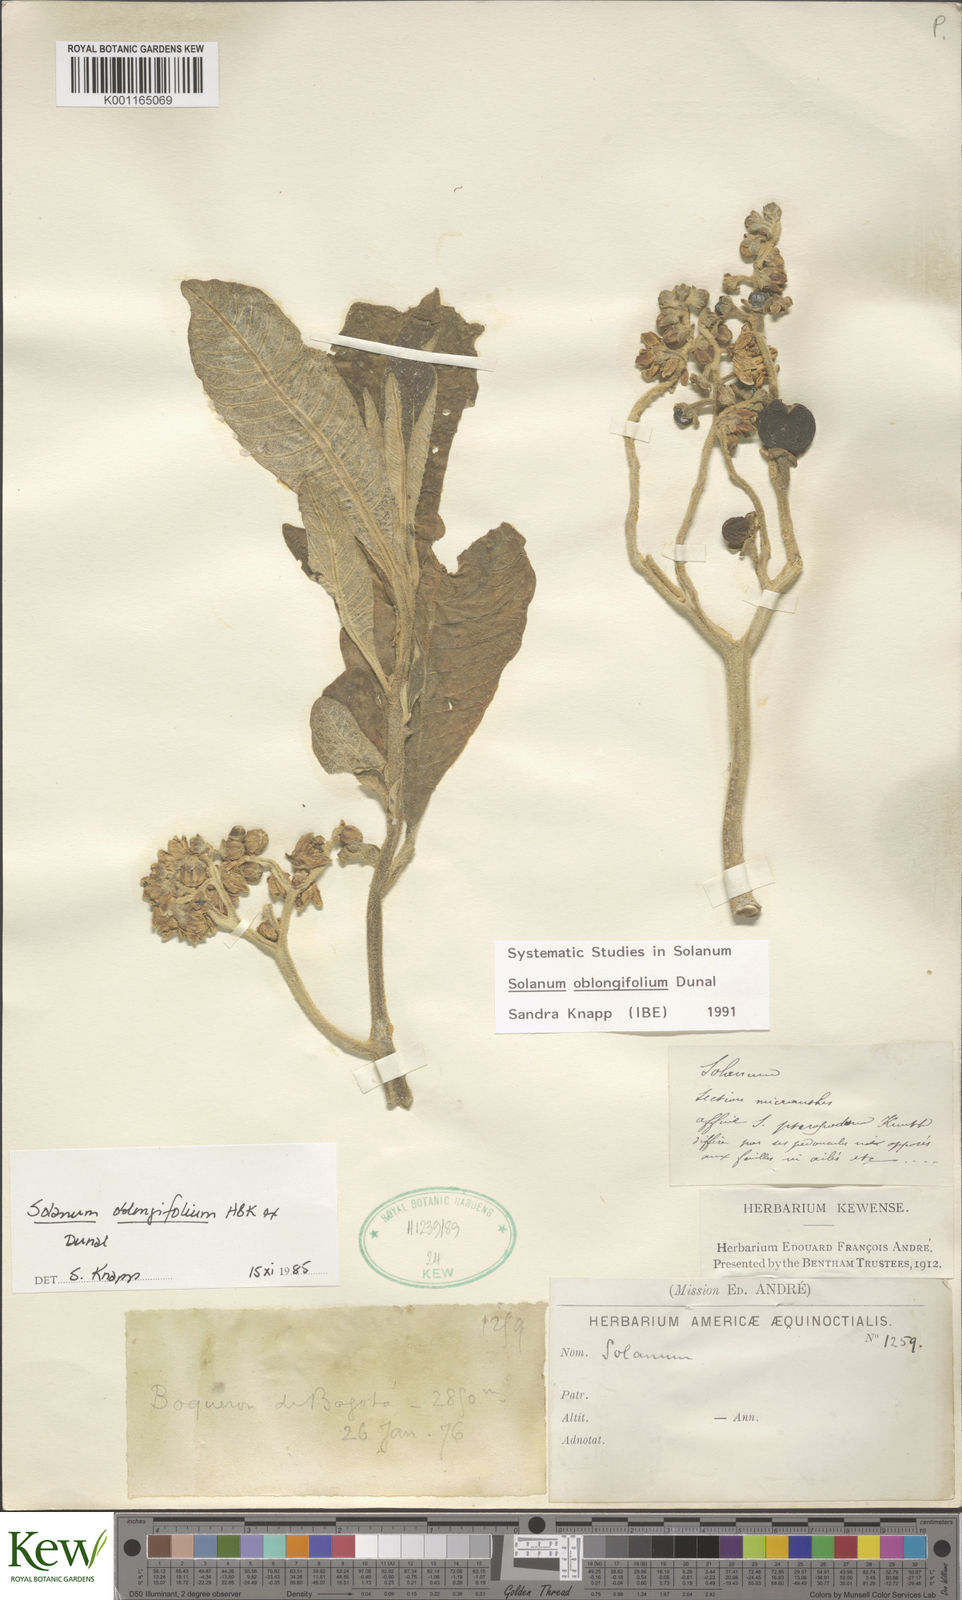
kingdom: Plantae
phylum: Tracheophyta
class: Magnoliopsida
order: Solanales
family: Solanaceae
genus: Solanum
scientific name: Solanum oblongifolium
